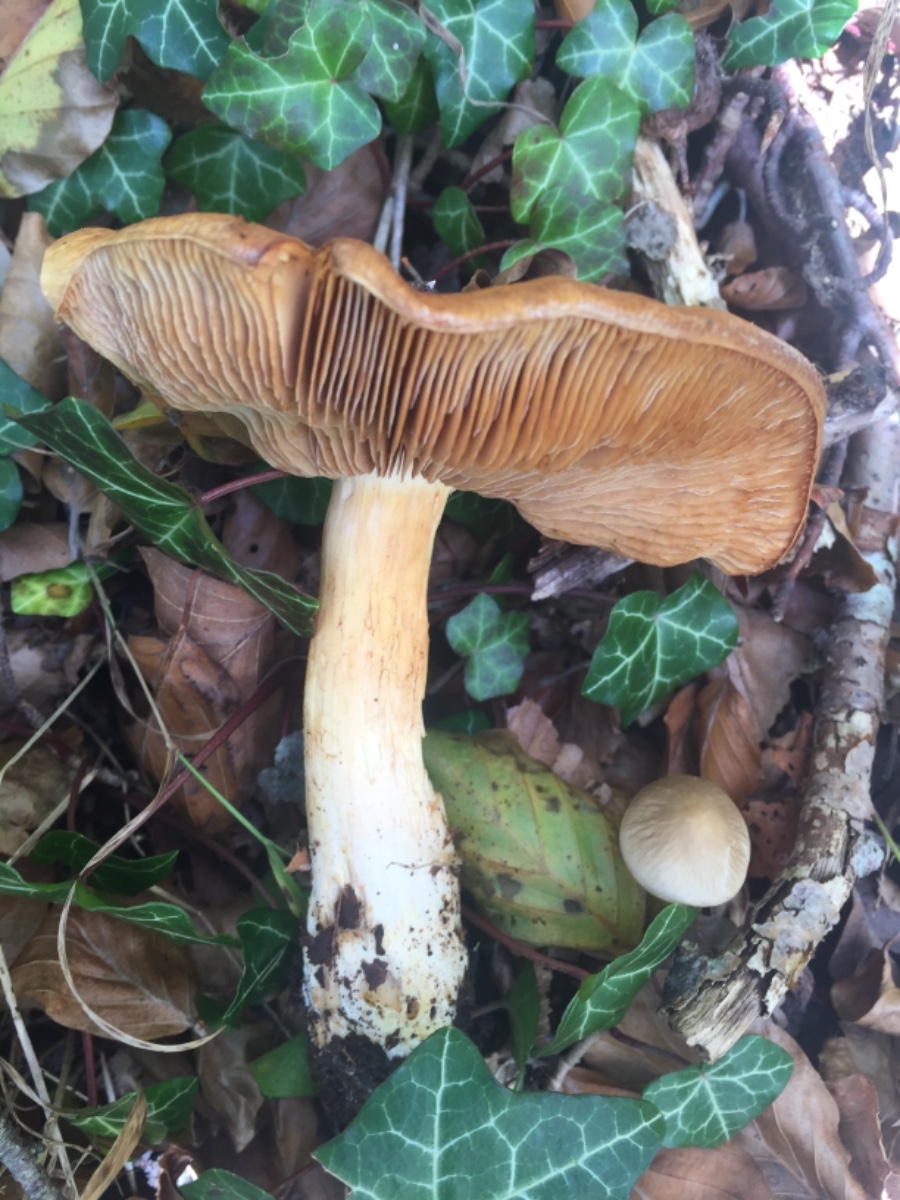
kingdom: Fungi
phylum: Basidiomycota
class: Agaricomycetes
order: Agaricales
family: Cortinariaceae
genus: Phlegmacium
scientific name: Phlegmacium subdecolorans
